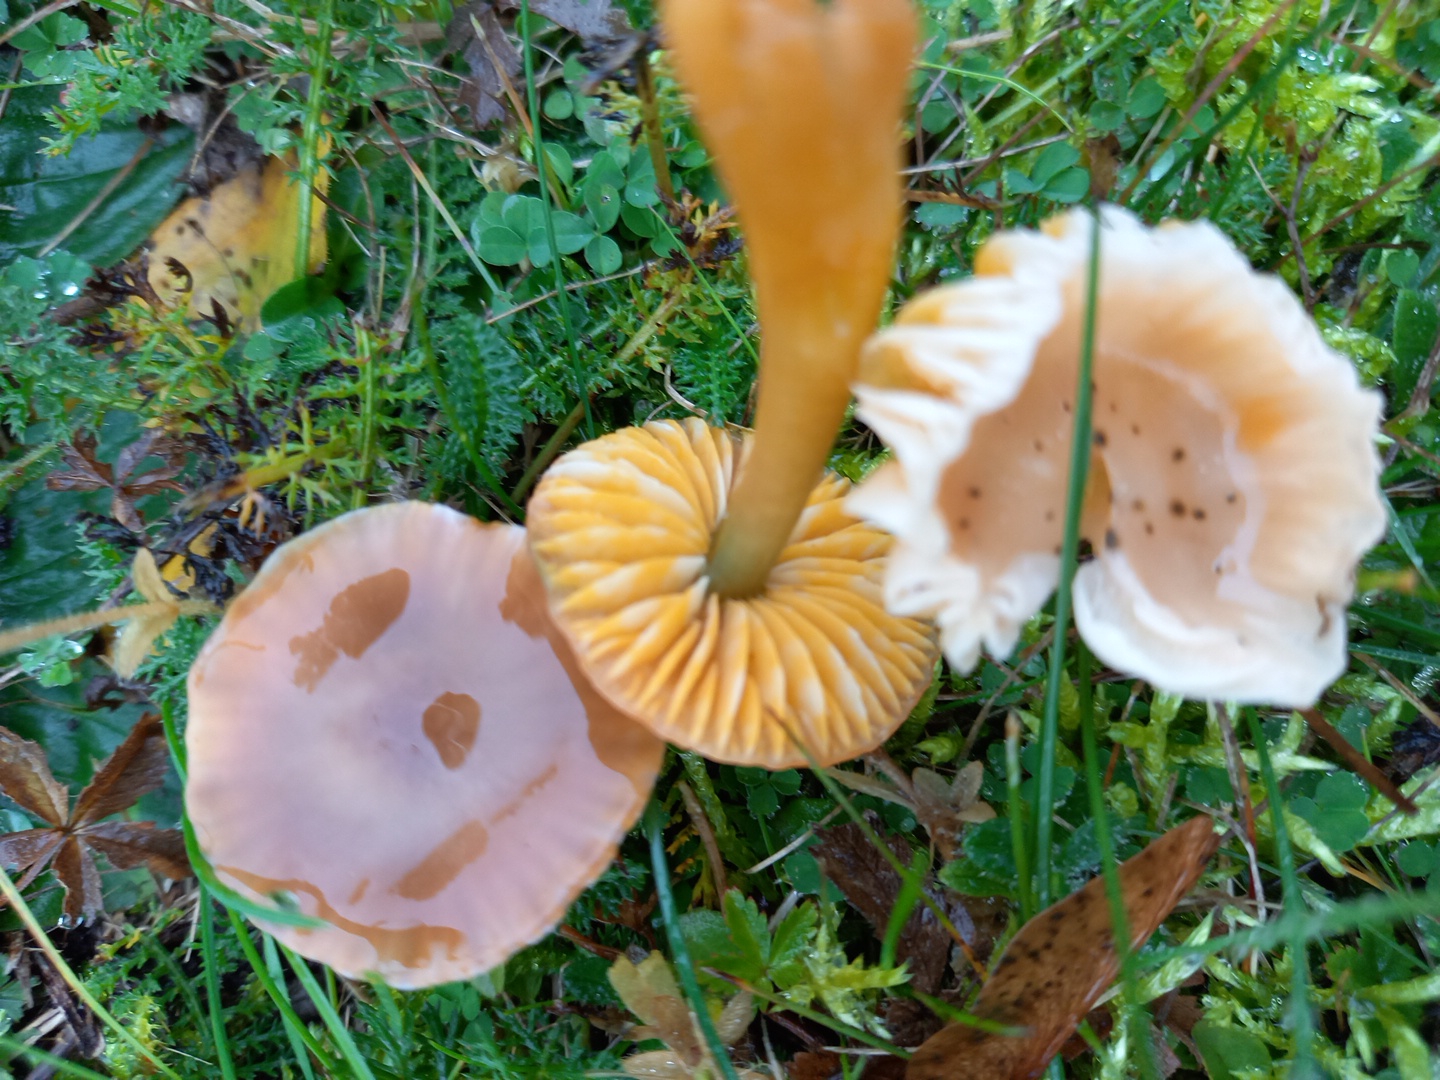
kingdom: Fungi
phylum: Basidiomycota
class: Agaricomycetes
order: Agaricales
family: Hygrophoraceae
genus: Gliophorus
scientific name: Gliophorus psittacinus
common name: papegøje-vokshat
